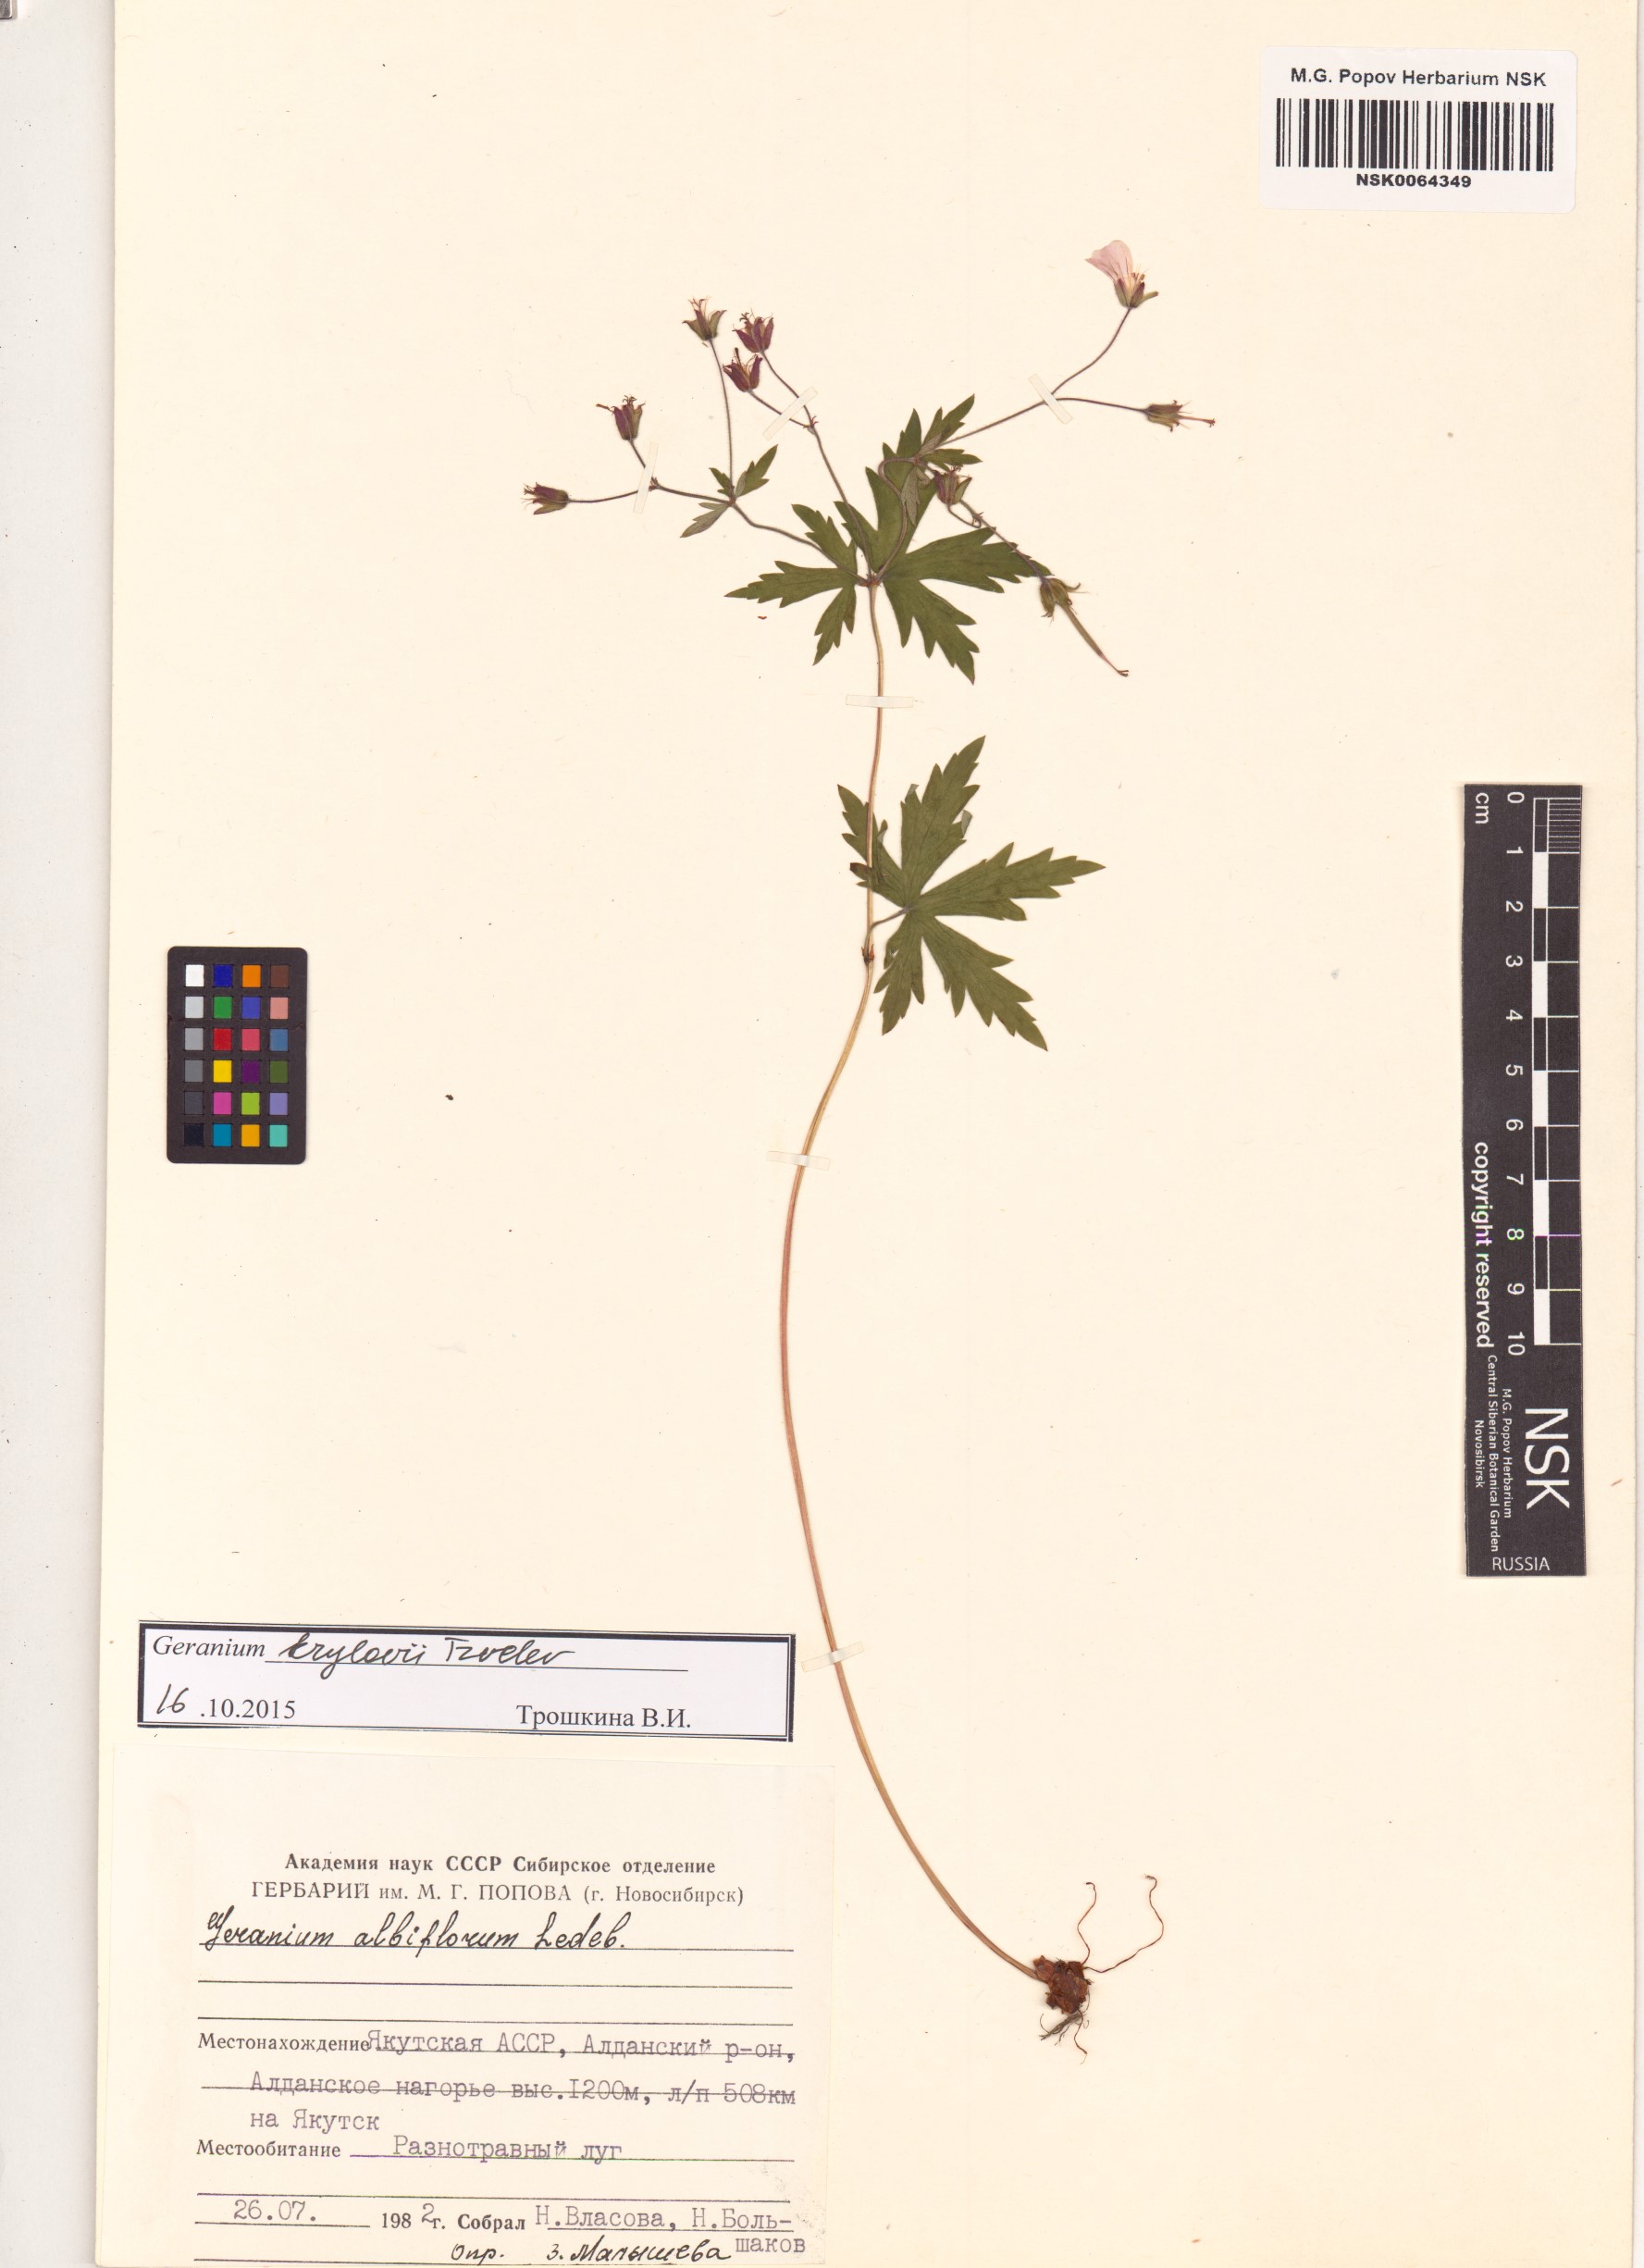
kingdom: Plantae
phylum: Tracheophyta
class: Magnoliopsida
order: Geraniales
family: Geraniaceae
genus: Geranium
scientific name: Geranium sylvaticum
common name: Wood crane's-bill
